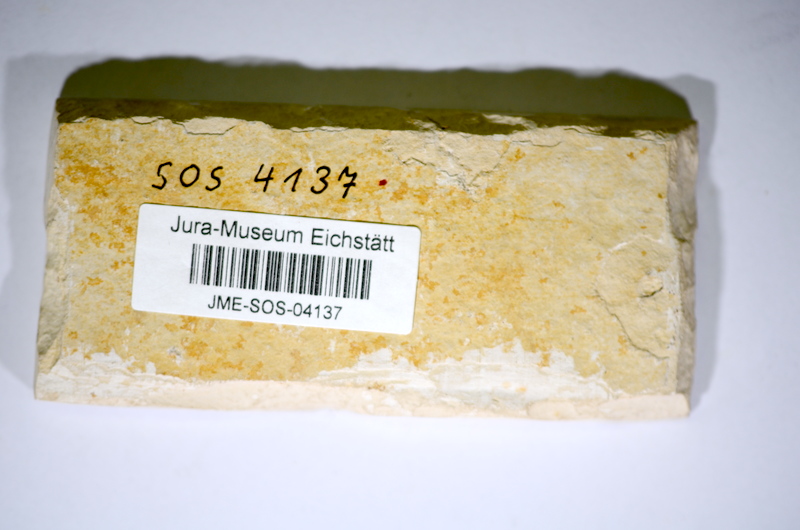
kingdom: Animalia
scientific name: Animalia
